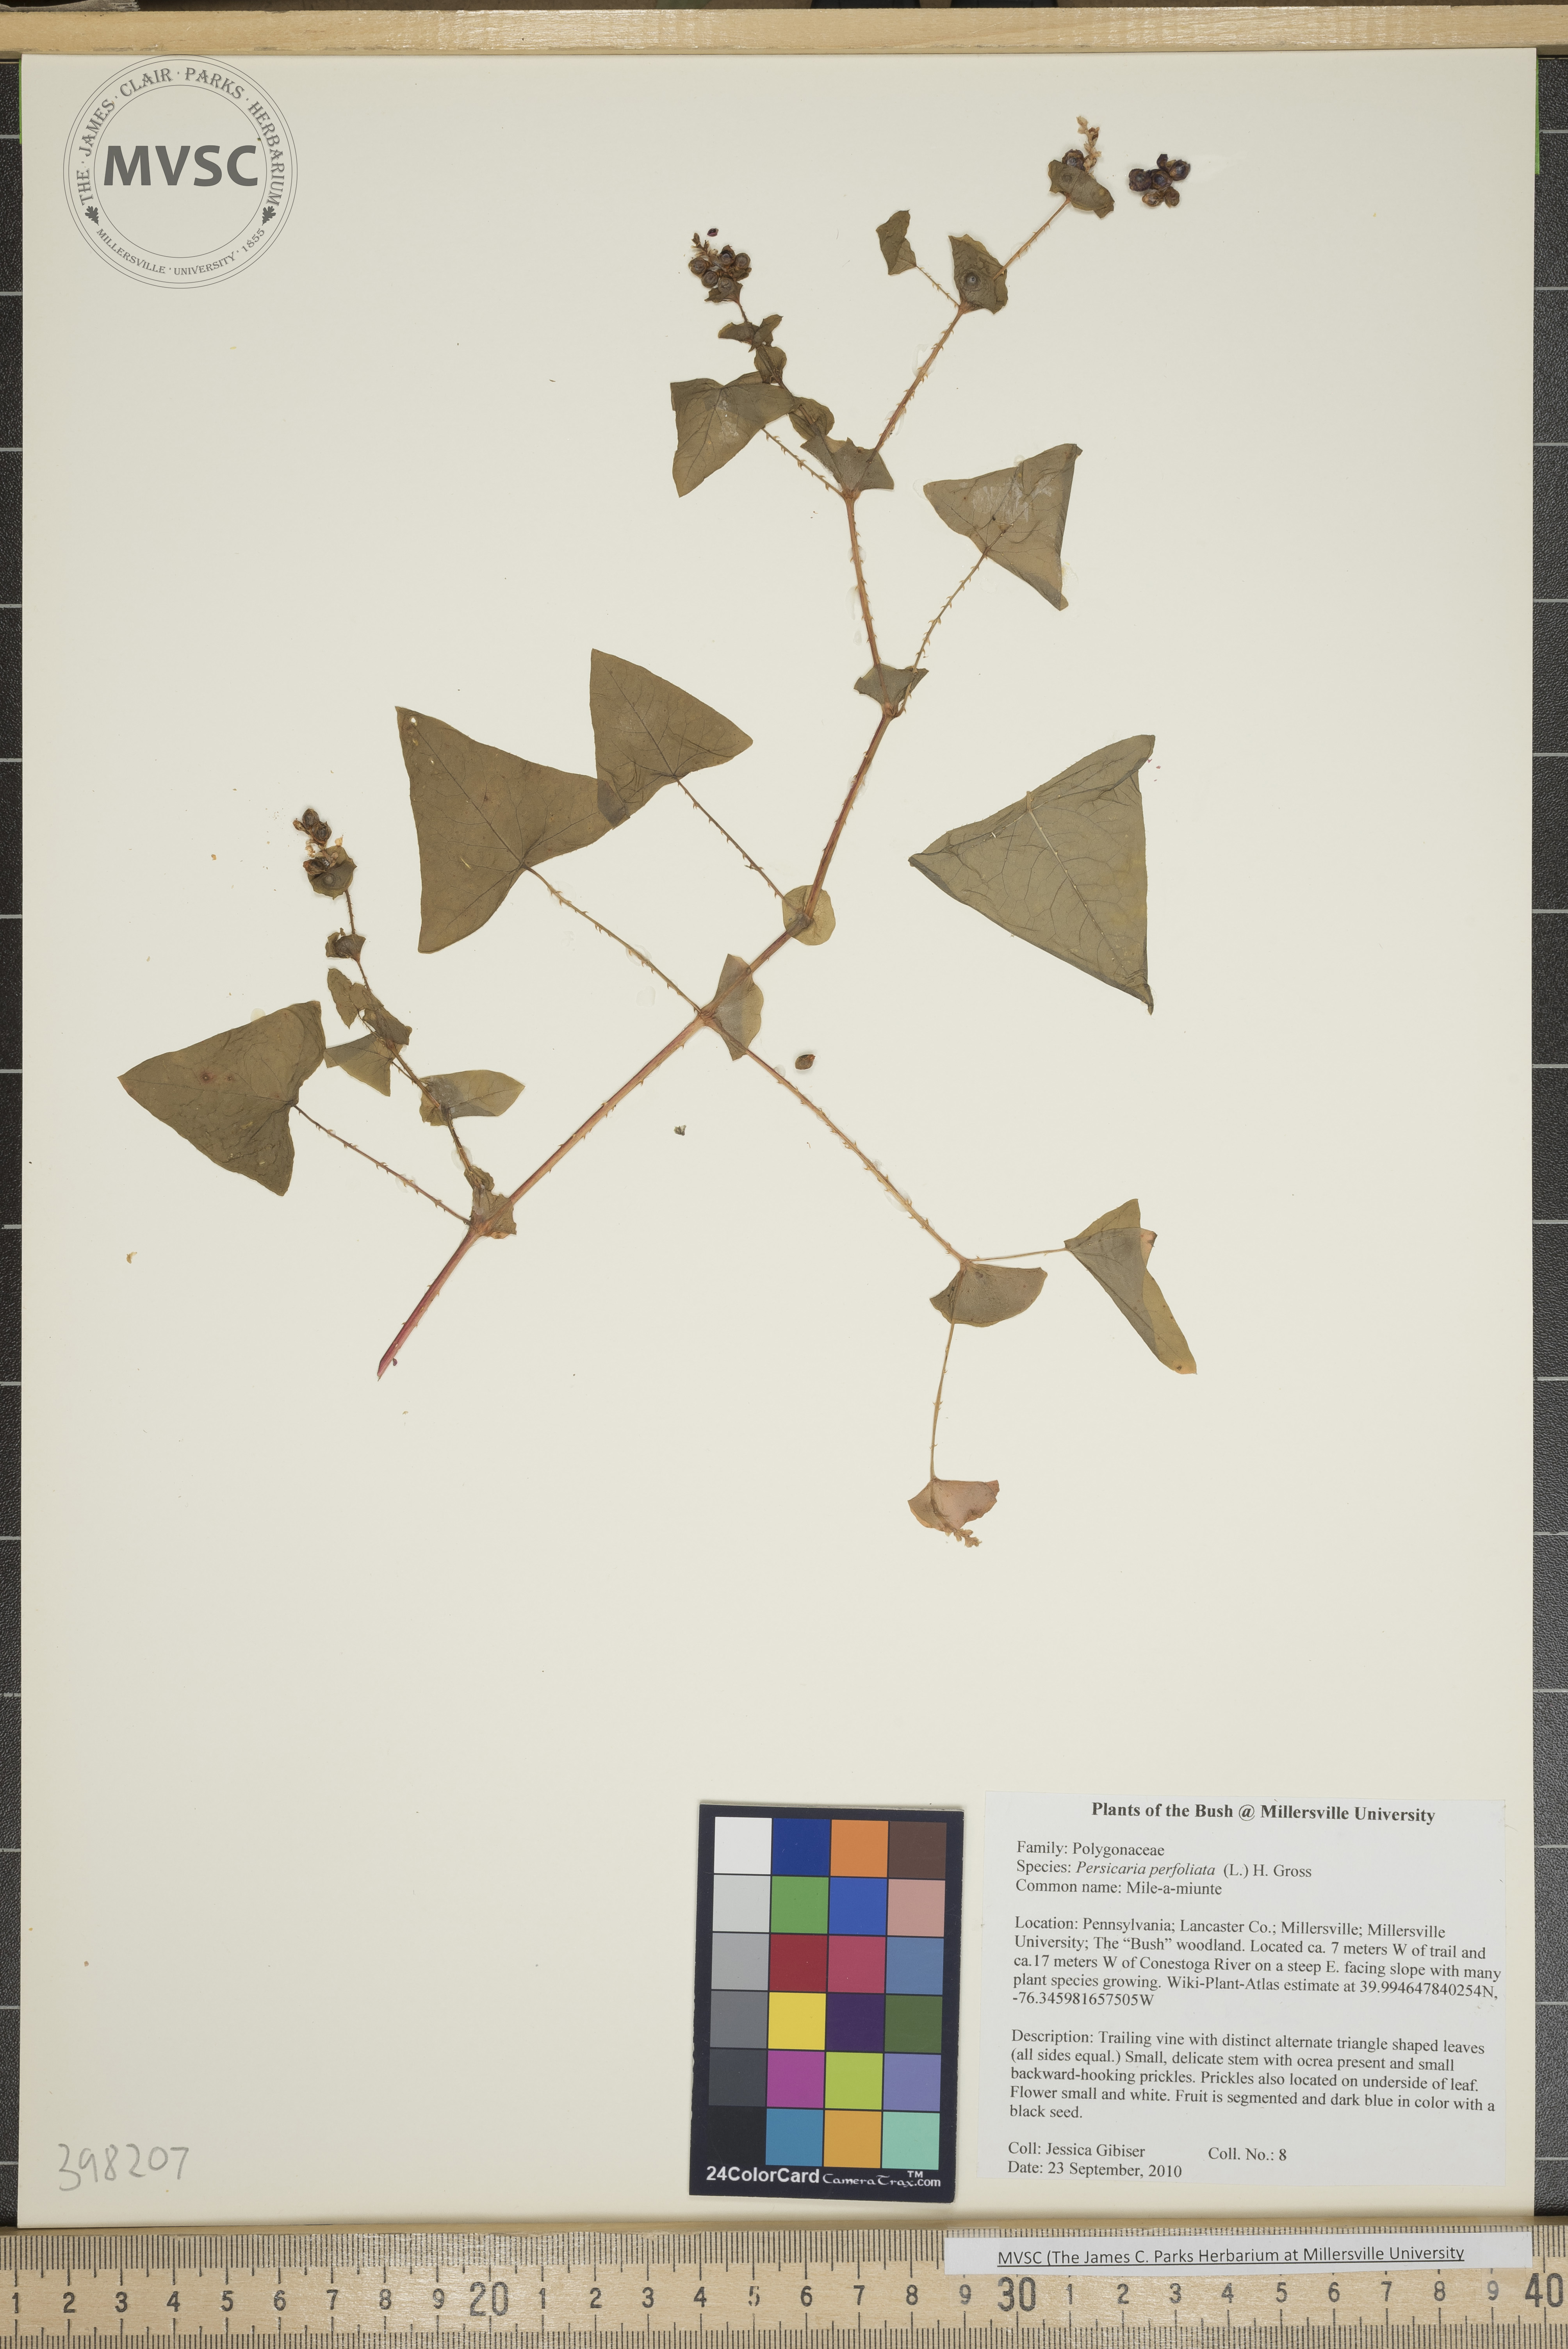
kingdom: Plantae
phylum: Tracheophyta
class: Magnoliopsida
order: Caryophyllales
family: Polygonaceae
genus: Persicaria
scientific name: Persicaria perfoliata
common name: Mile-a-minute weed
